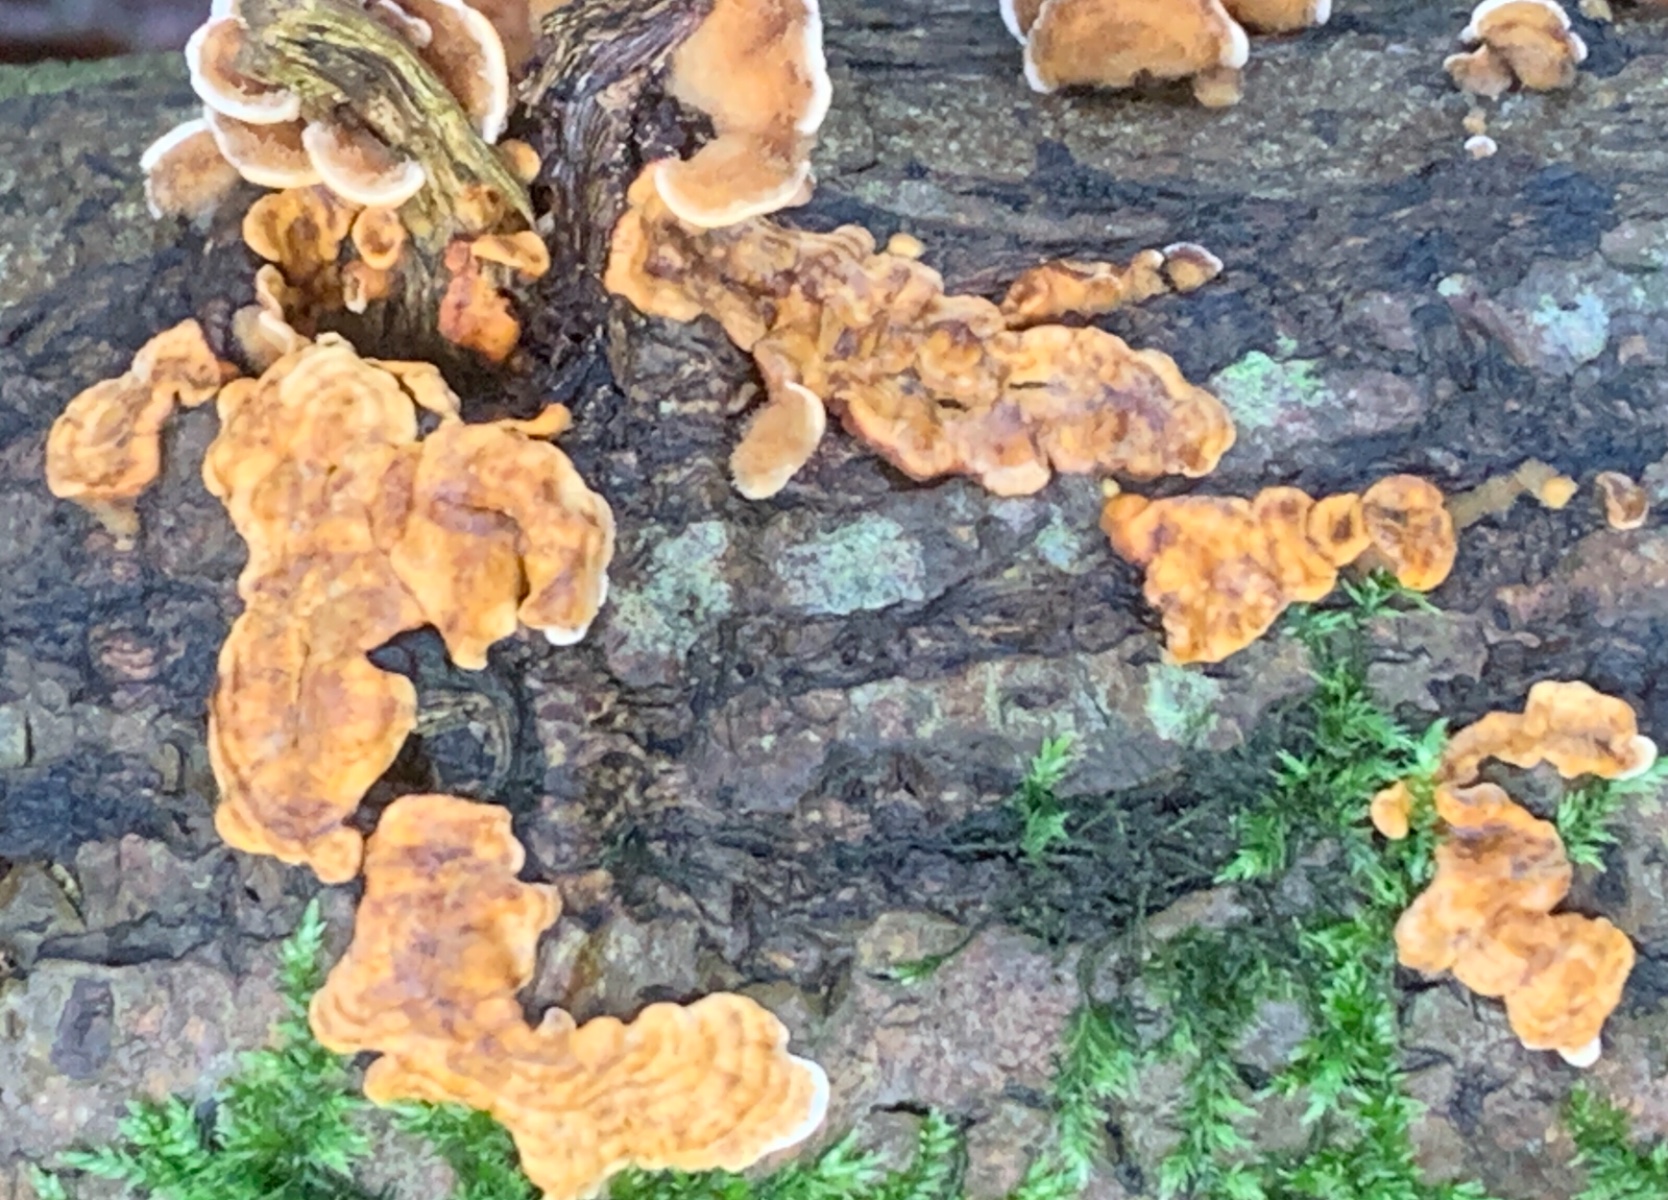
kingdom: Fungi
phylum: Basidiomycota
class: Agaricomycetes
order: Russulales
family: Stereaceae
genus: Stereum
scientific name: Stereum hirsutum
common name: håret lædersvamp
